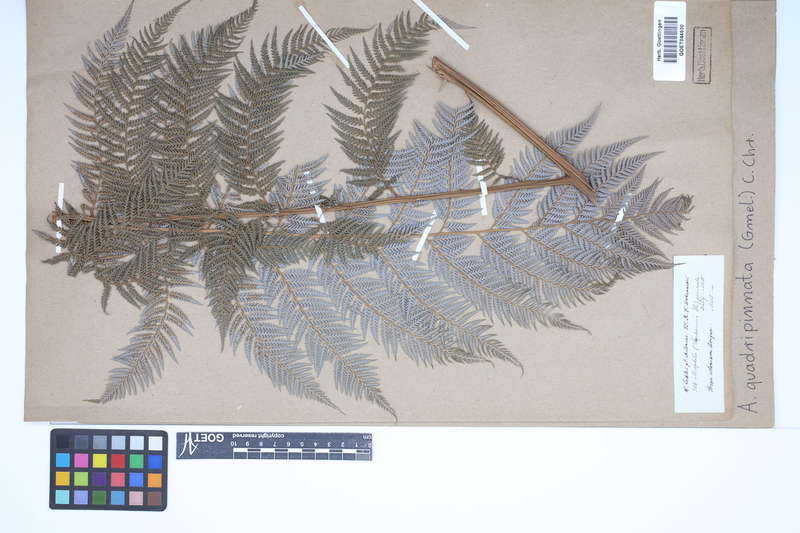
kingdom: Plantae
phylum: Tracheophyta
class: Polypodiopsida
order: Cyatheales
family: Dicksoniaceae
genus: Lophosoria
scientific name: Lophosoria quadripinnata
